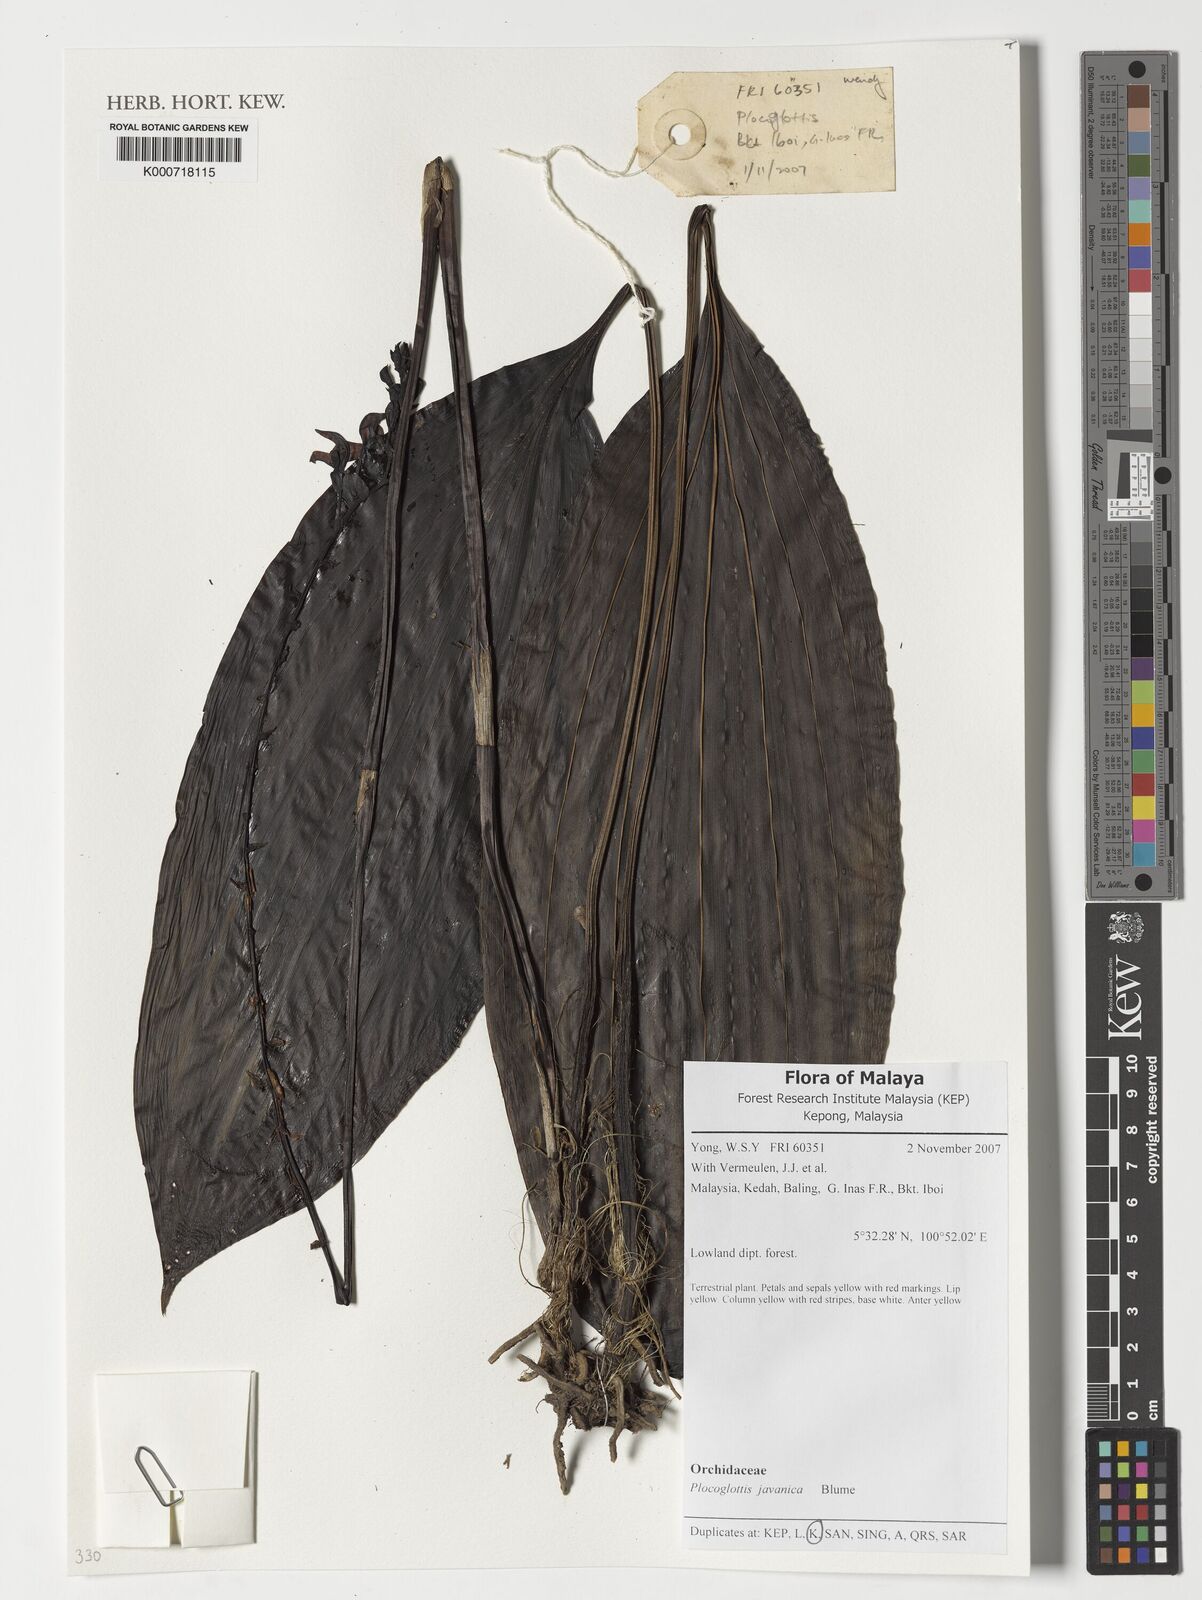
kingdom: Plantae
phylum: Tracheophyta
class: Liliopsida
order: Asparagales
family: Orchidaceae
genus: Plocoglottis
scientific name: Plocoglottis javanica
